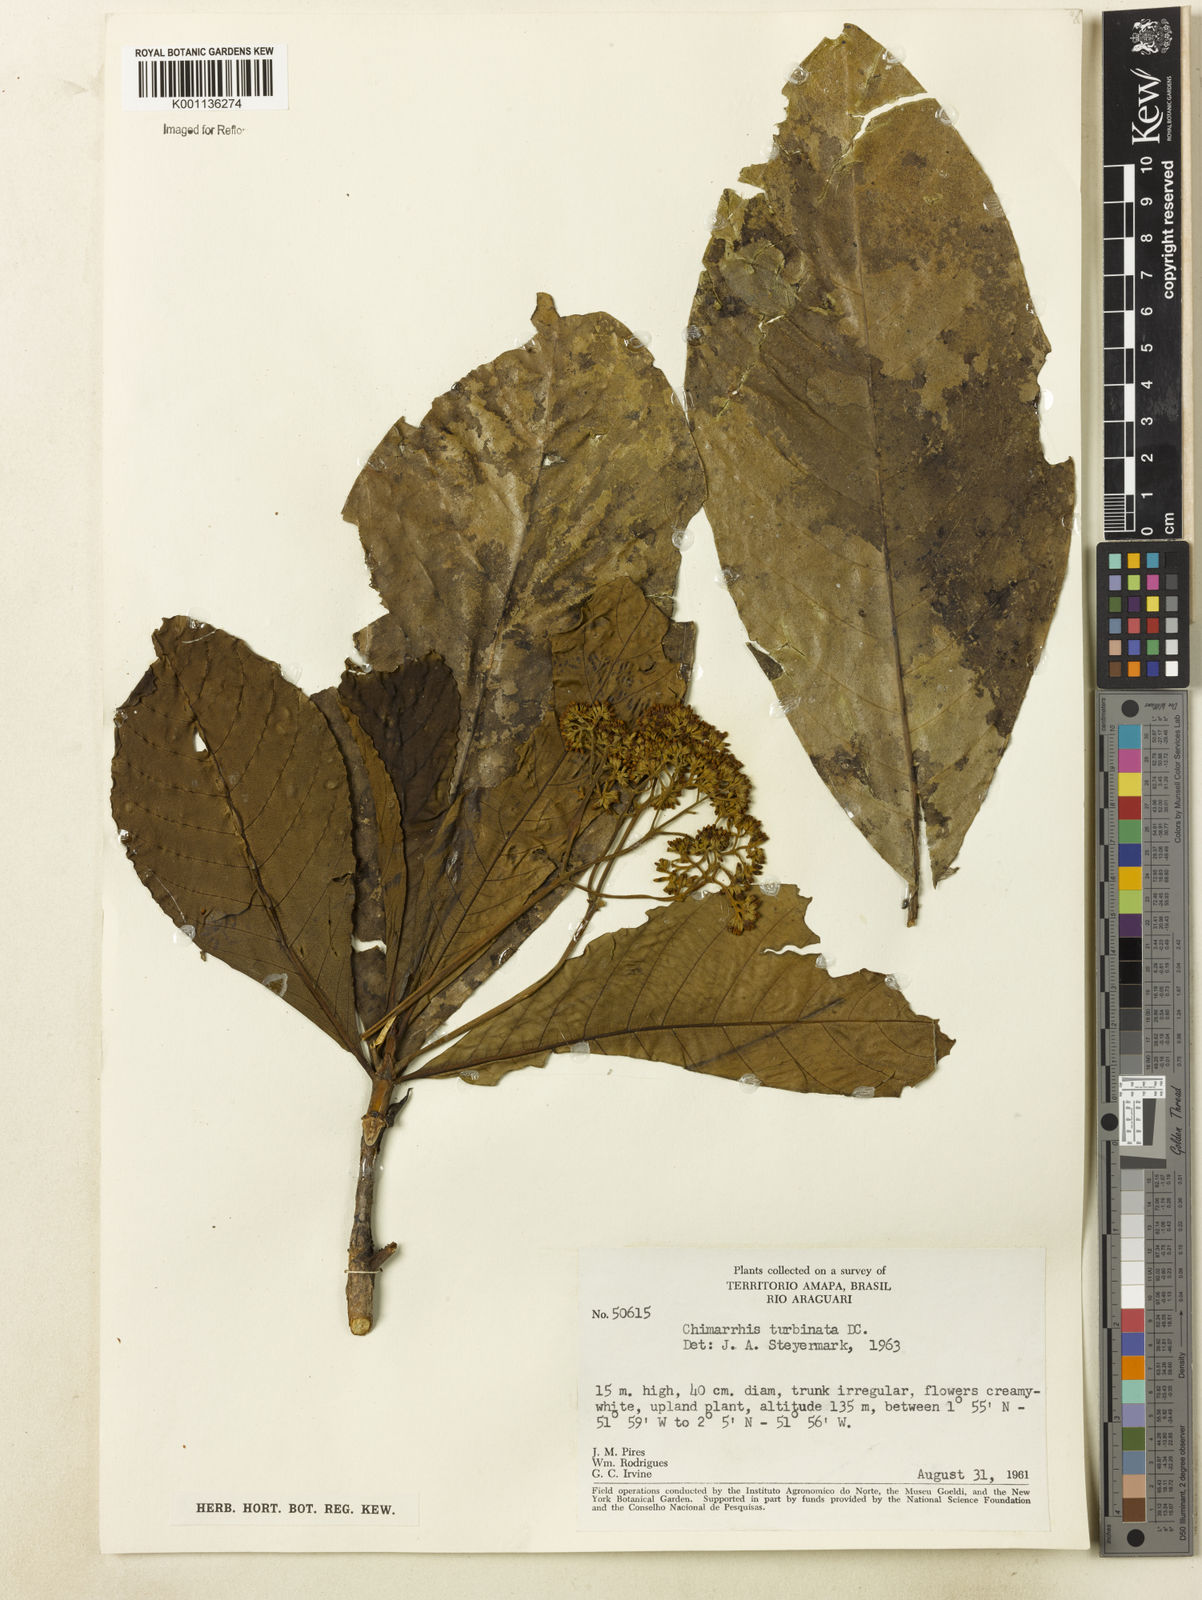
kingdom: Plantae
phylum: Tracheophyta
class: Magnoliopsida
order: Gentianales
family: Rubiaceae
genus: Chimarrhis
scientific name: Chimarrhis turbinata
